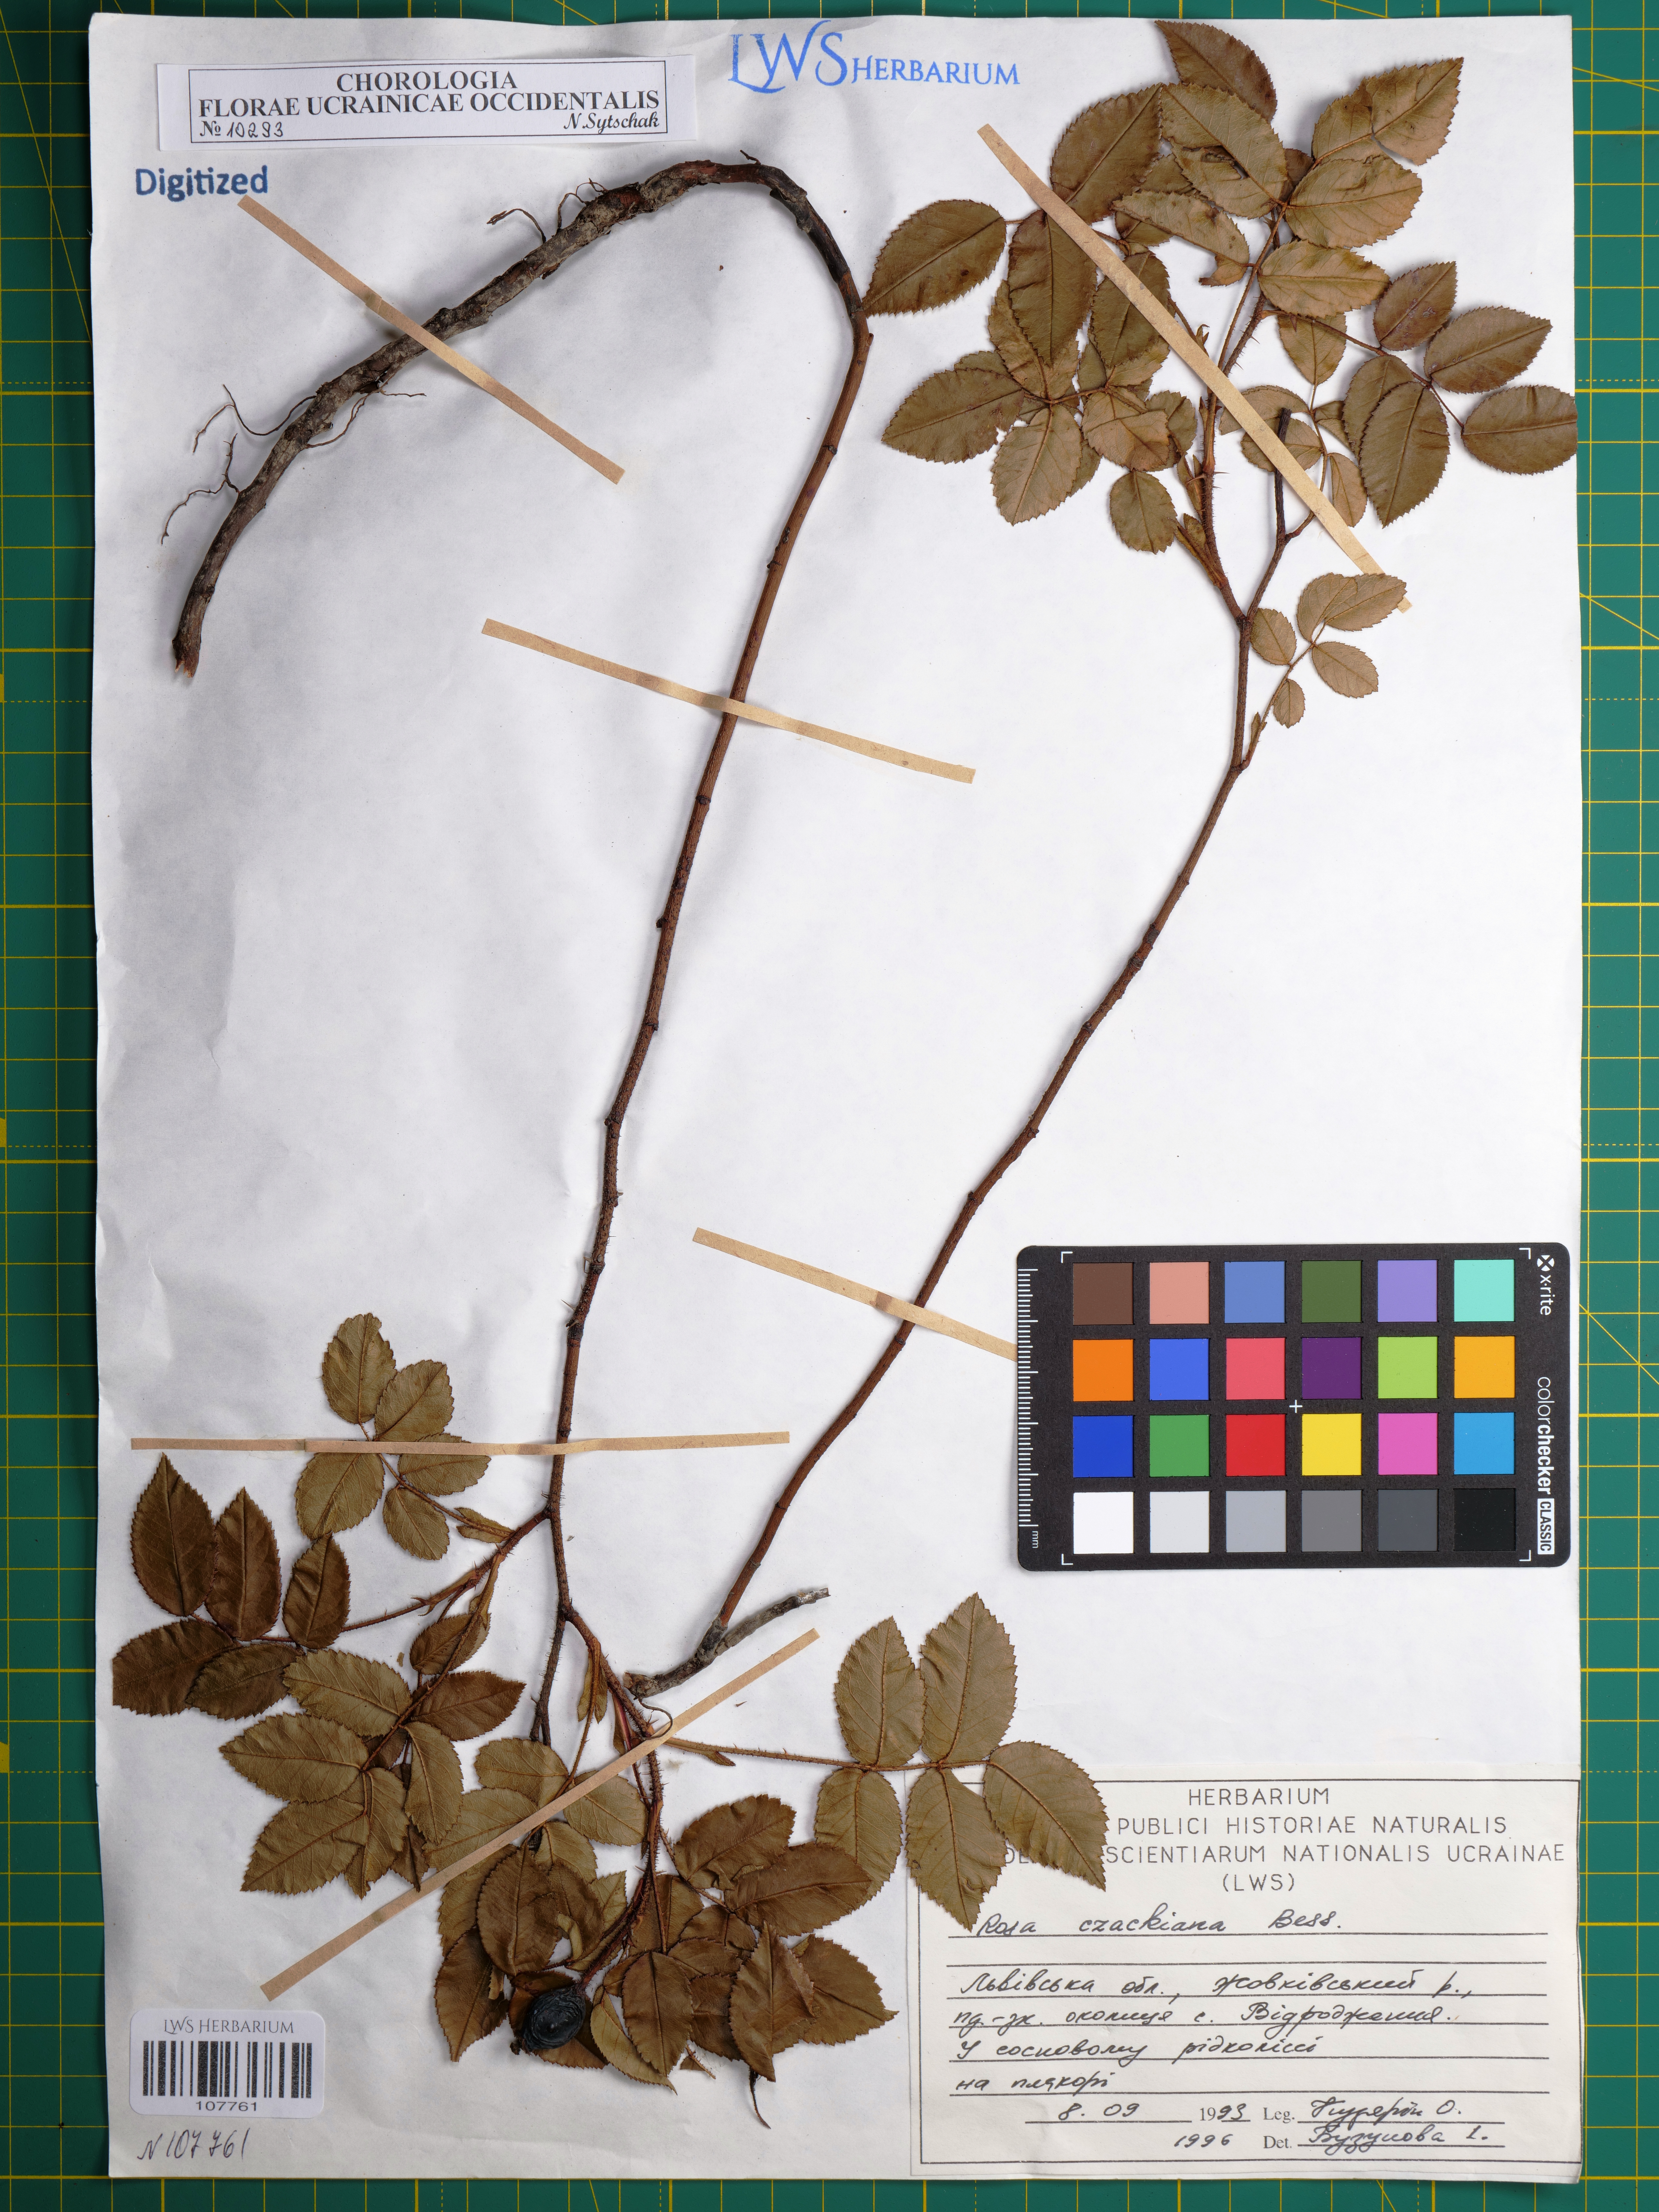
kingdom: Plantae
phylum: Tracheophyta
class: Magnoliopsida
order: Rosales
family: Rosaceae
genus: Rosa
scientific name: Rosa gallica
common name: French rose
